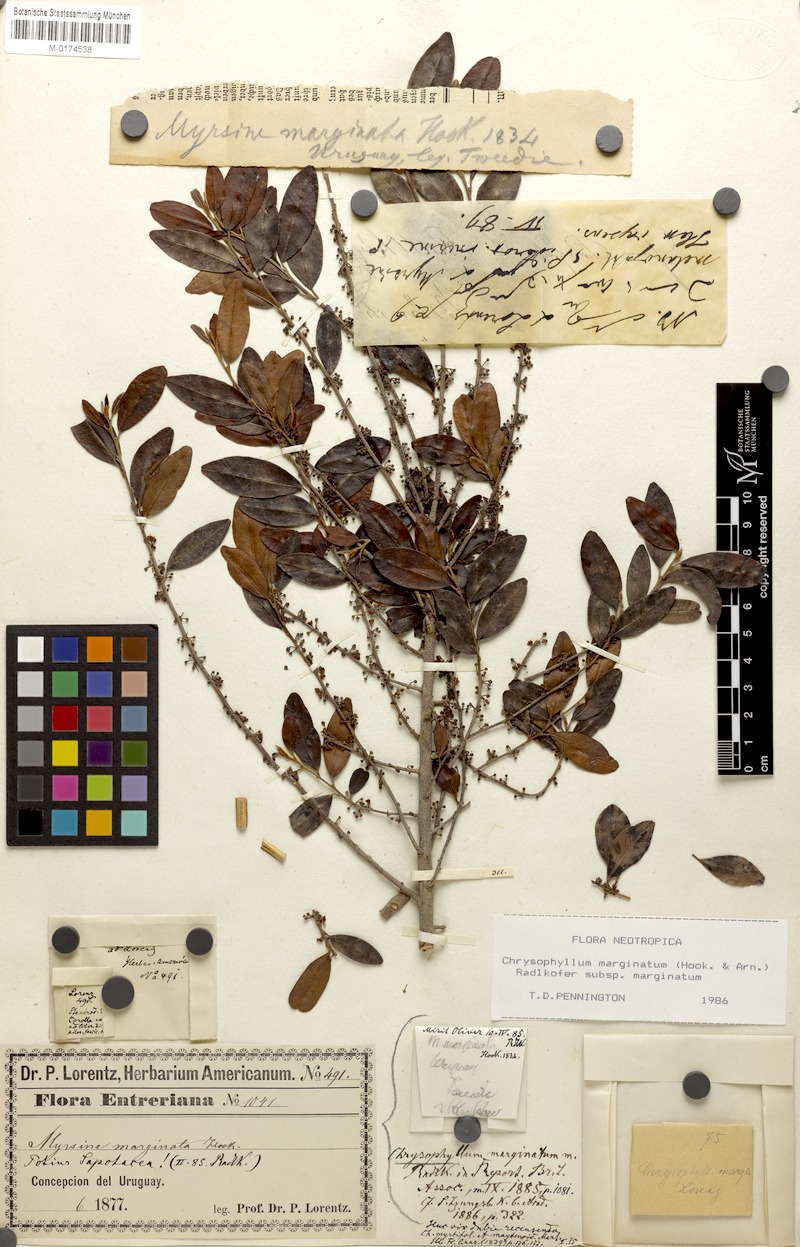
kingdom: Plantae
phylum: Tracheophyta
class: Magnoliopsida
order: Ericales
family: Sapotaceae
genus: Chrysophyllum
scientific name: Chrysophyllum marginatum
